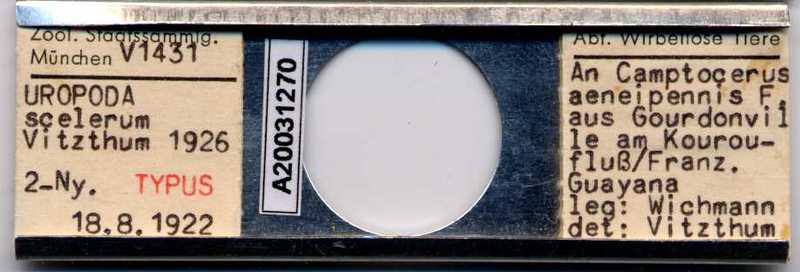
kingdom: Animalia
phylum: Arthropoda
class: Arachnida
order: Mesostigmata
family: Uropodidae
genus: Uropoda
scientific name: Uropoda
